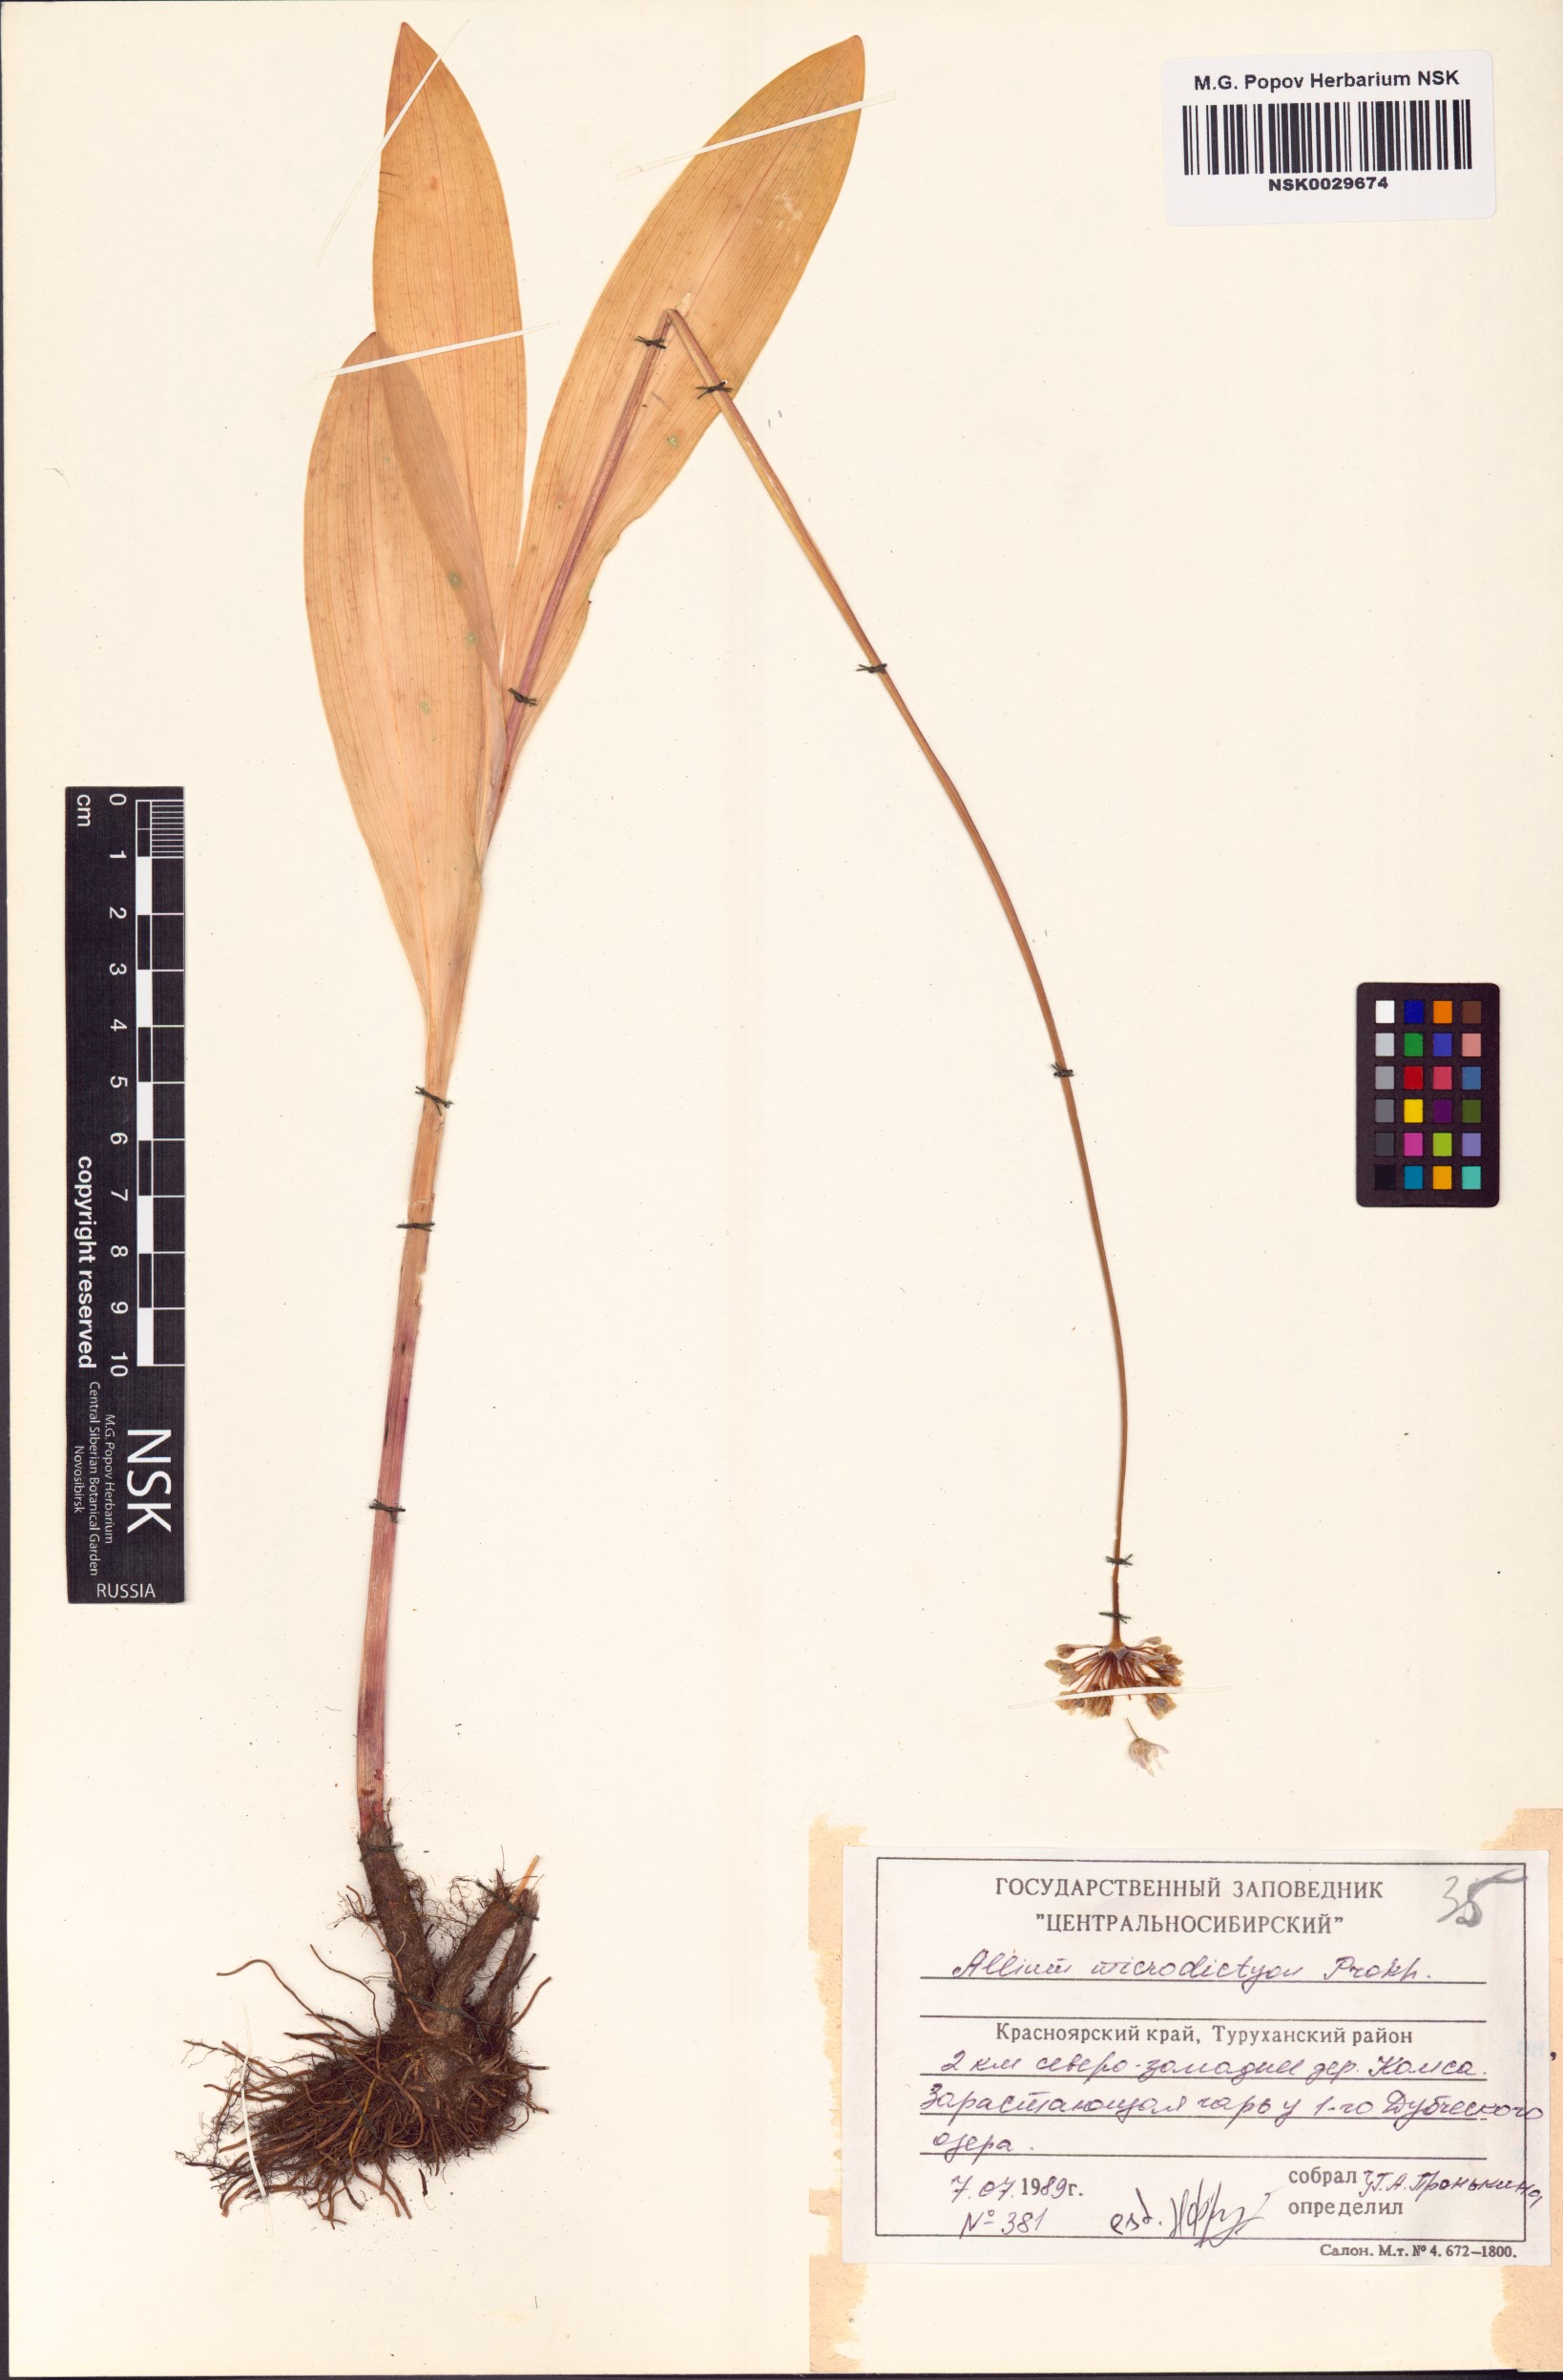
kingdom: Plantae
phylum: Tracheophyta
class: Liliopsida
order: Asparagales
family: Amaryllidaceae
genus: Allium
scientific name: Allium microdictyon
